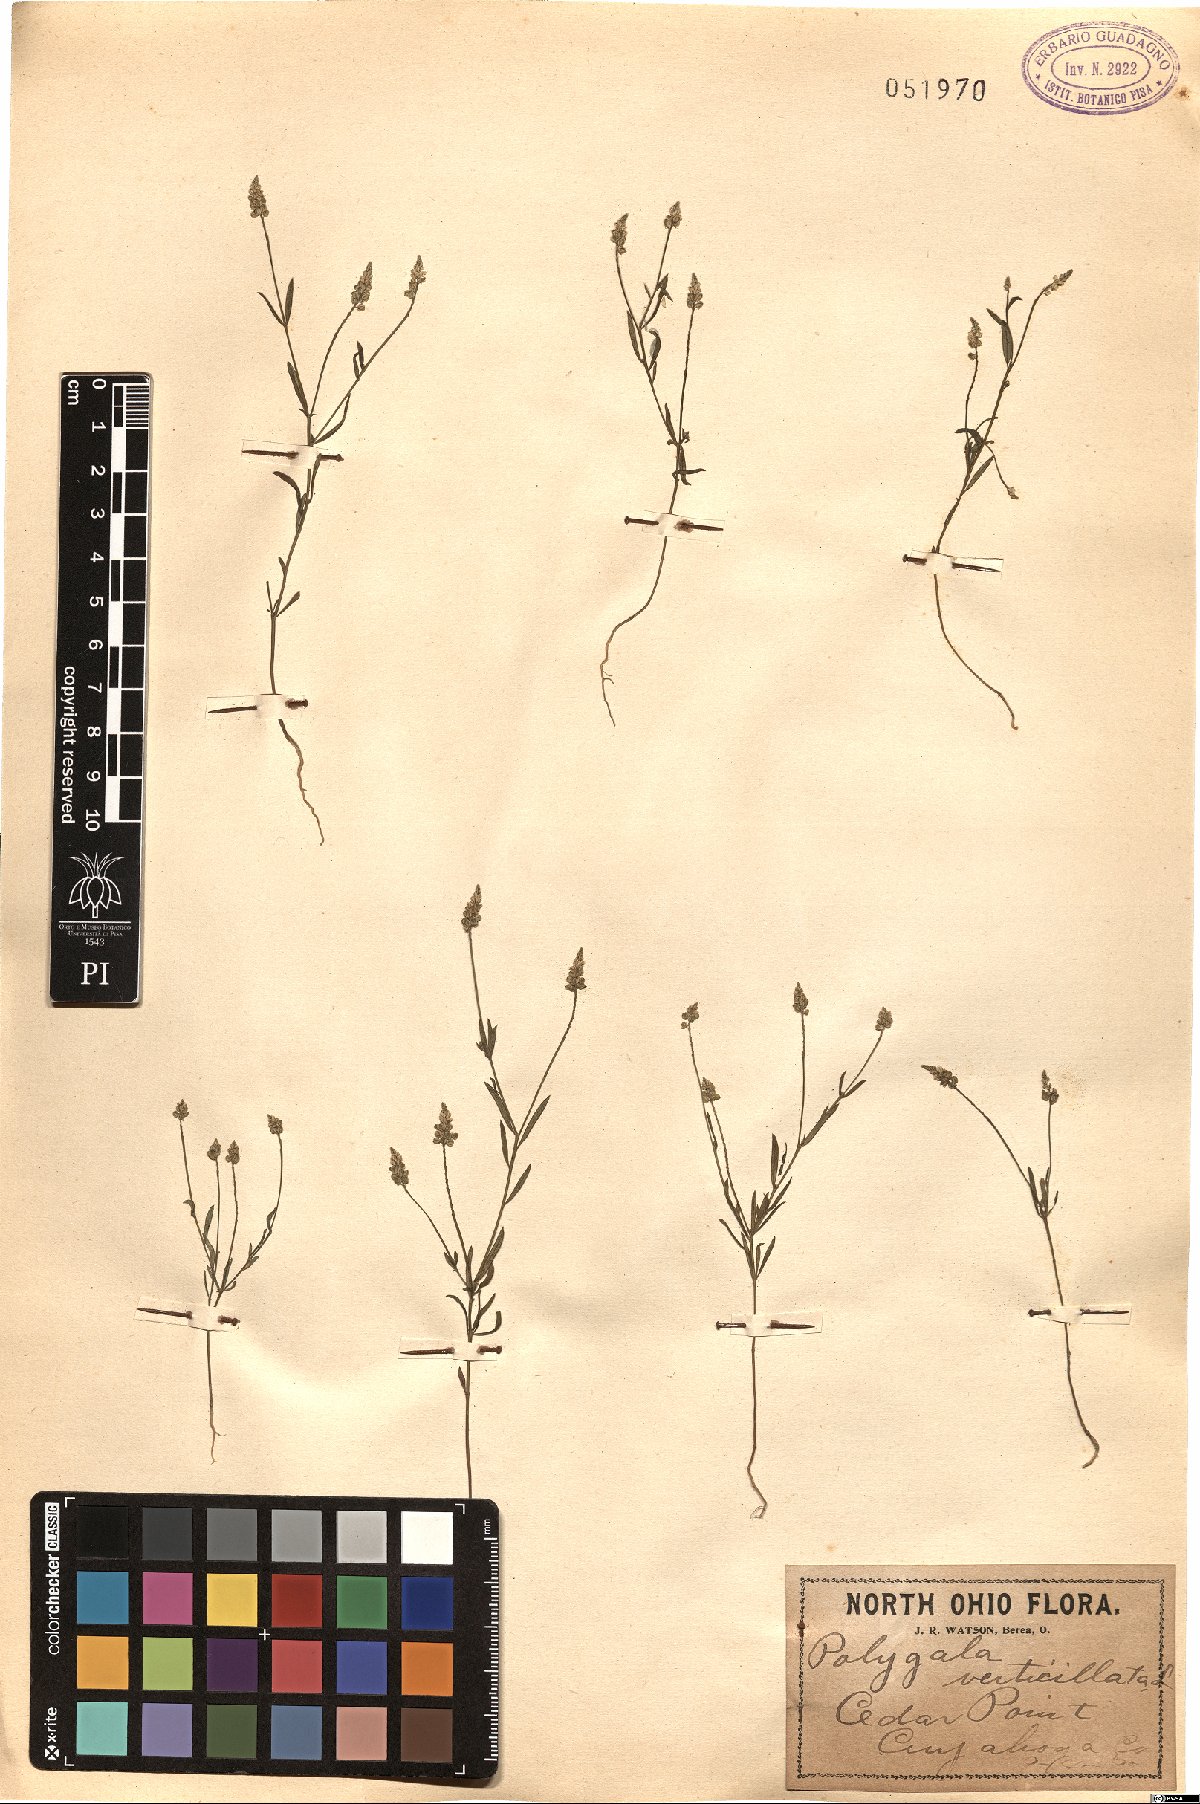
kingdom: Plantae
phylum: Tracheophyta
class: Magnoliopsida
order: Fabales
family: Polygalaceae
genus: Polygala
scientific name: Polygala verticillata
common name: Whorl milkwort
